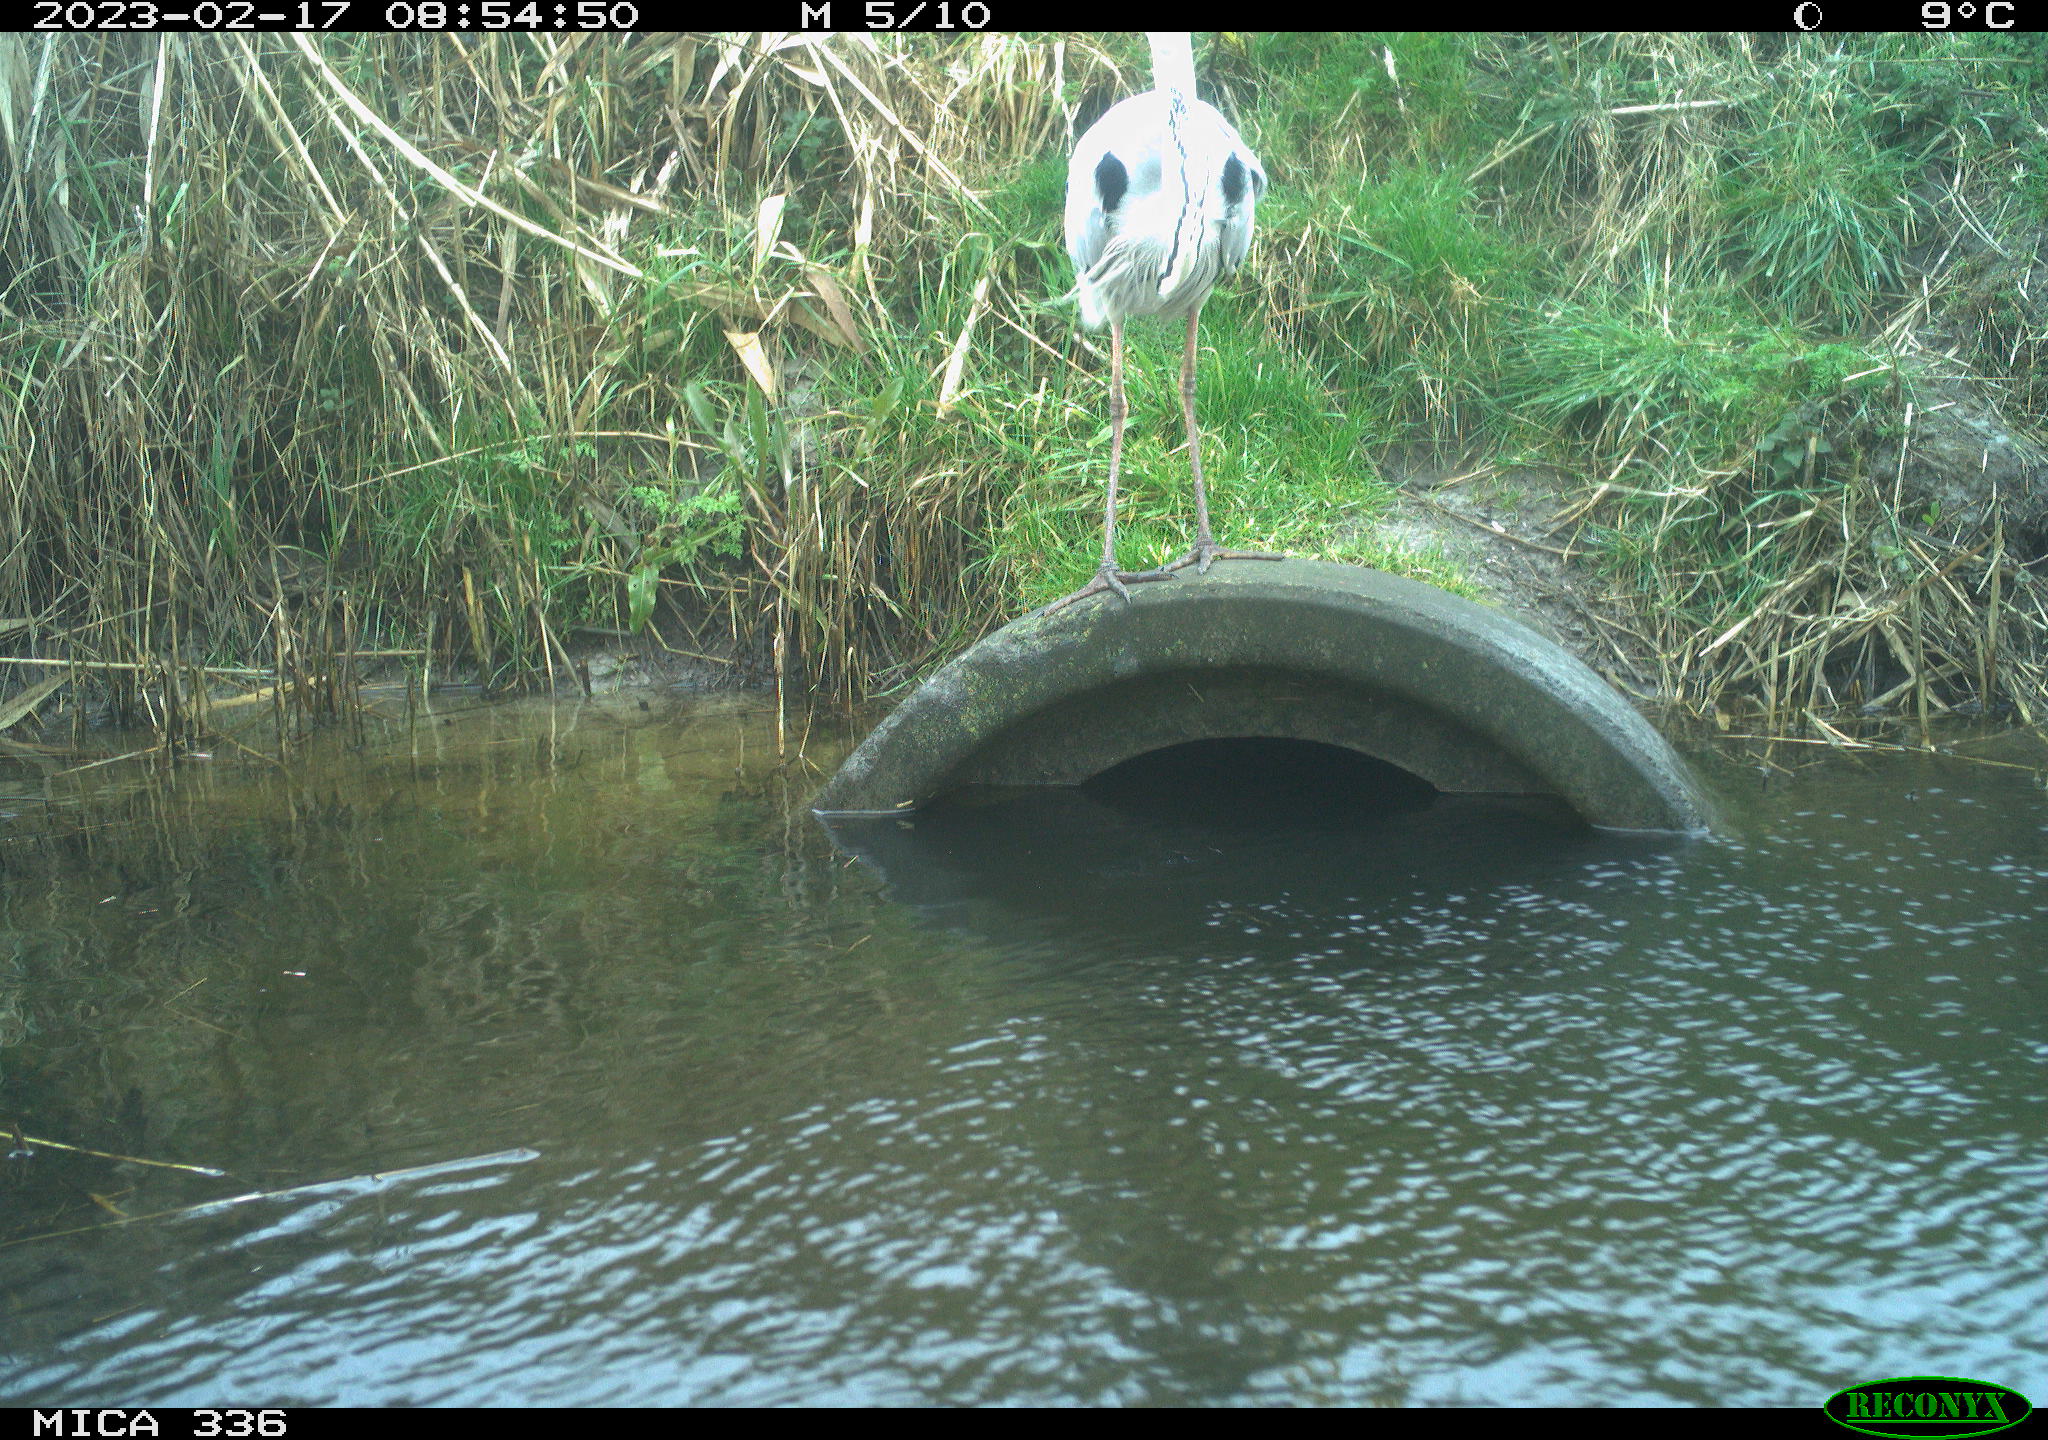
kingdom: Animalia
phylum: Chordata
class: Aves
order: Pelecaniformes
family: Ardeidae
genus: Ardea
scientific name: Ardea cinerea
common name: Grey heron
